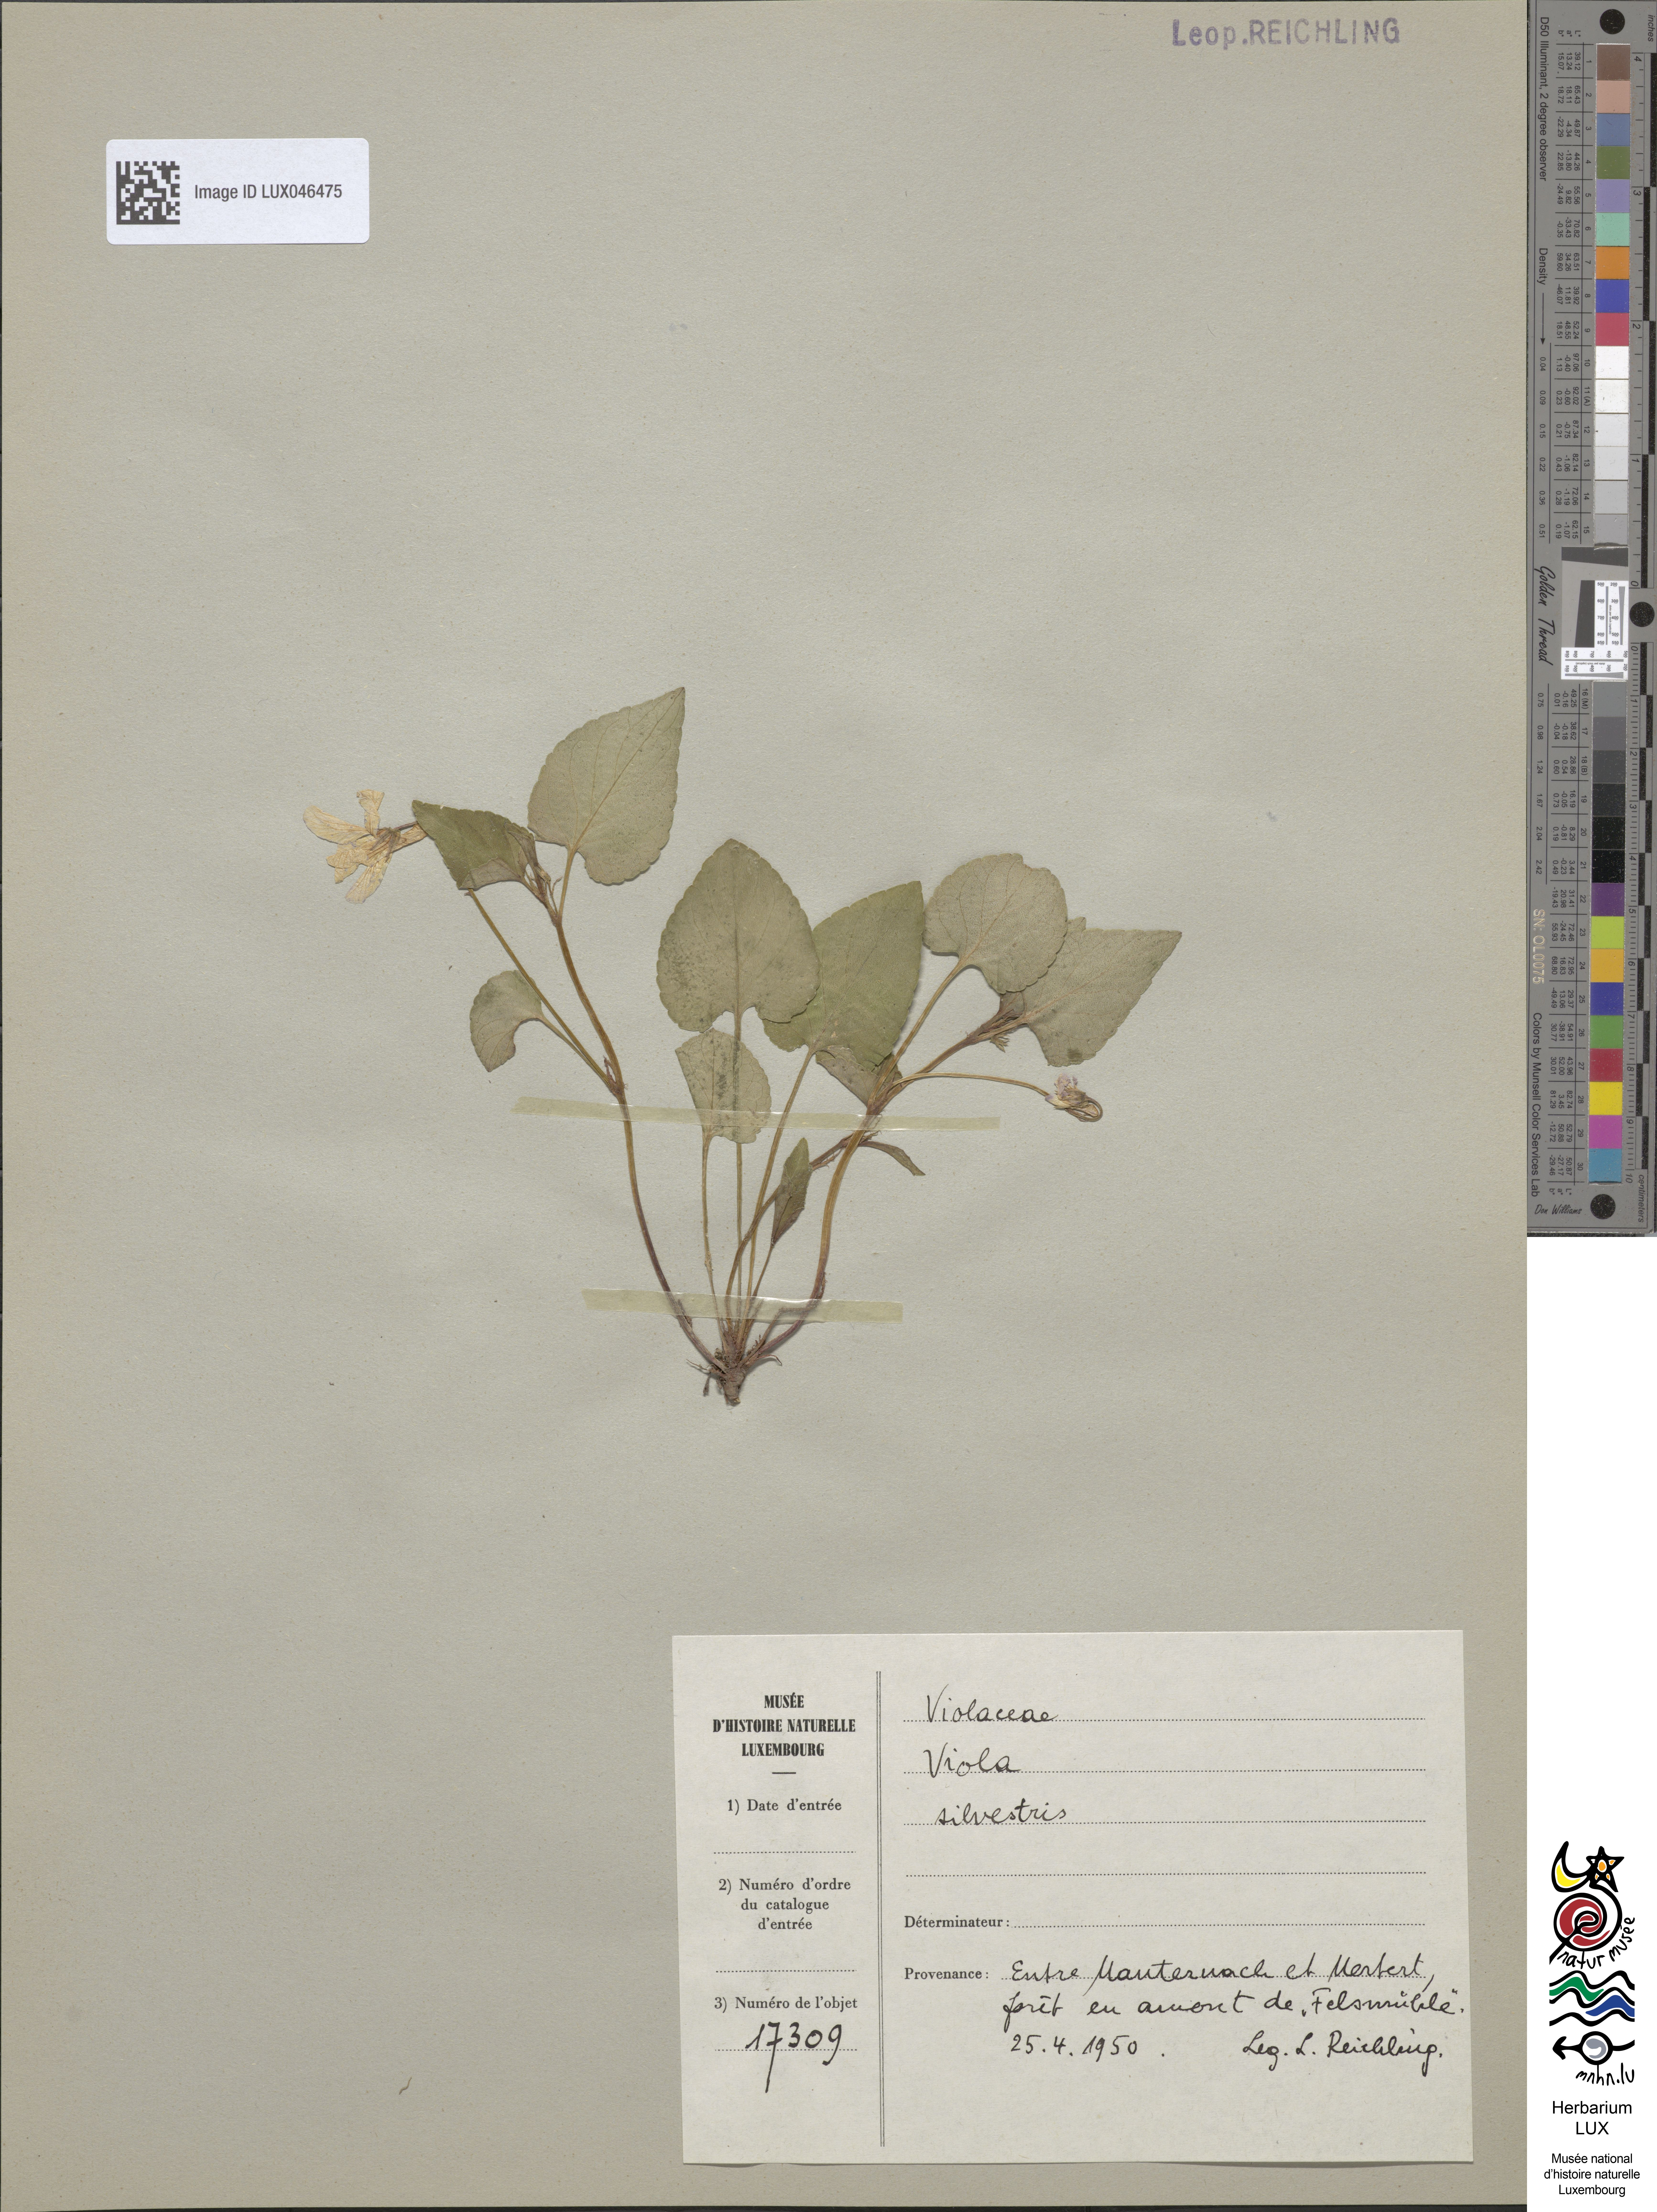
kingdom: Plantae
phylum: Tracheophyta
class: Magnoliopsida
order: Malpighiales
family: Violaceae
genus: Viola
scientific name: Viola reichenbachiana
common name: Early dog-violet
